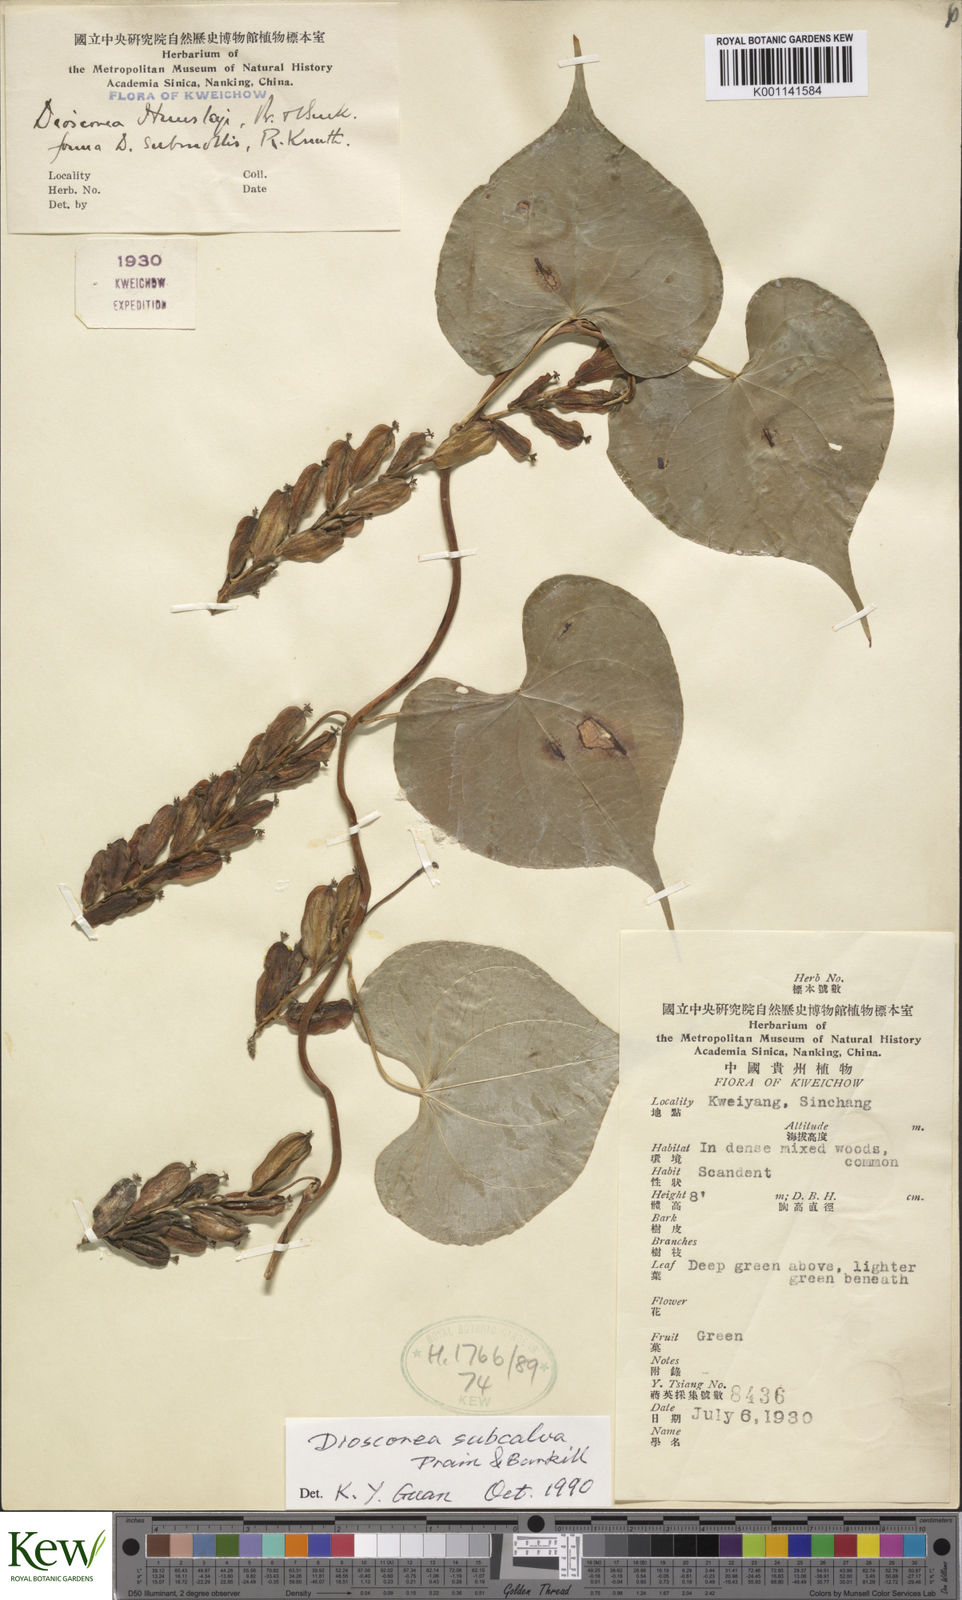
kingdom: Plantae
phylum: Tracheophyta
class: Liliopsida
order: Dioscoreales
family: Dioscoreaceae
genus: Dioscorea
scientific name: Dioscorea subcalva
